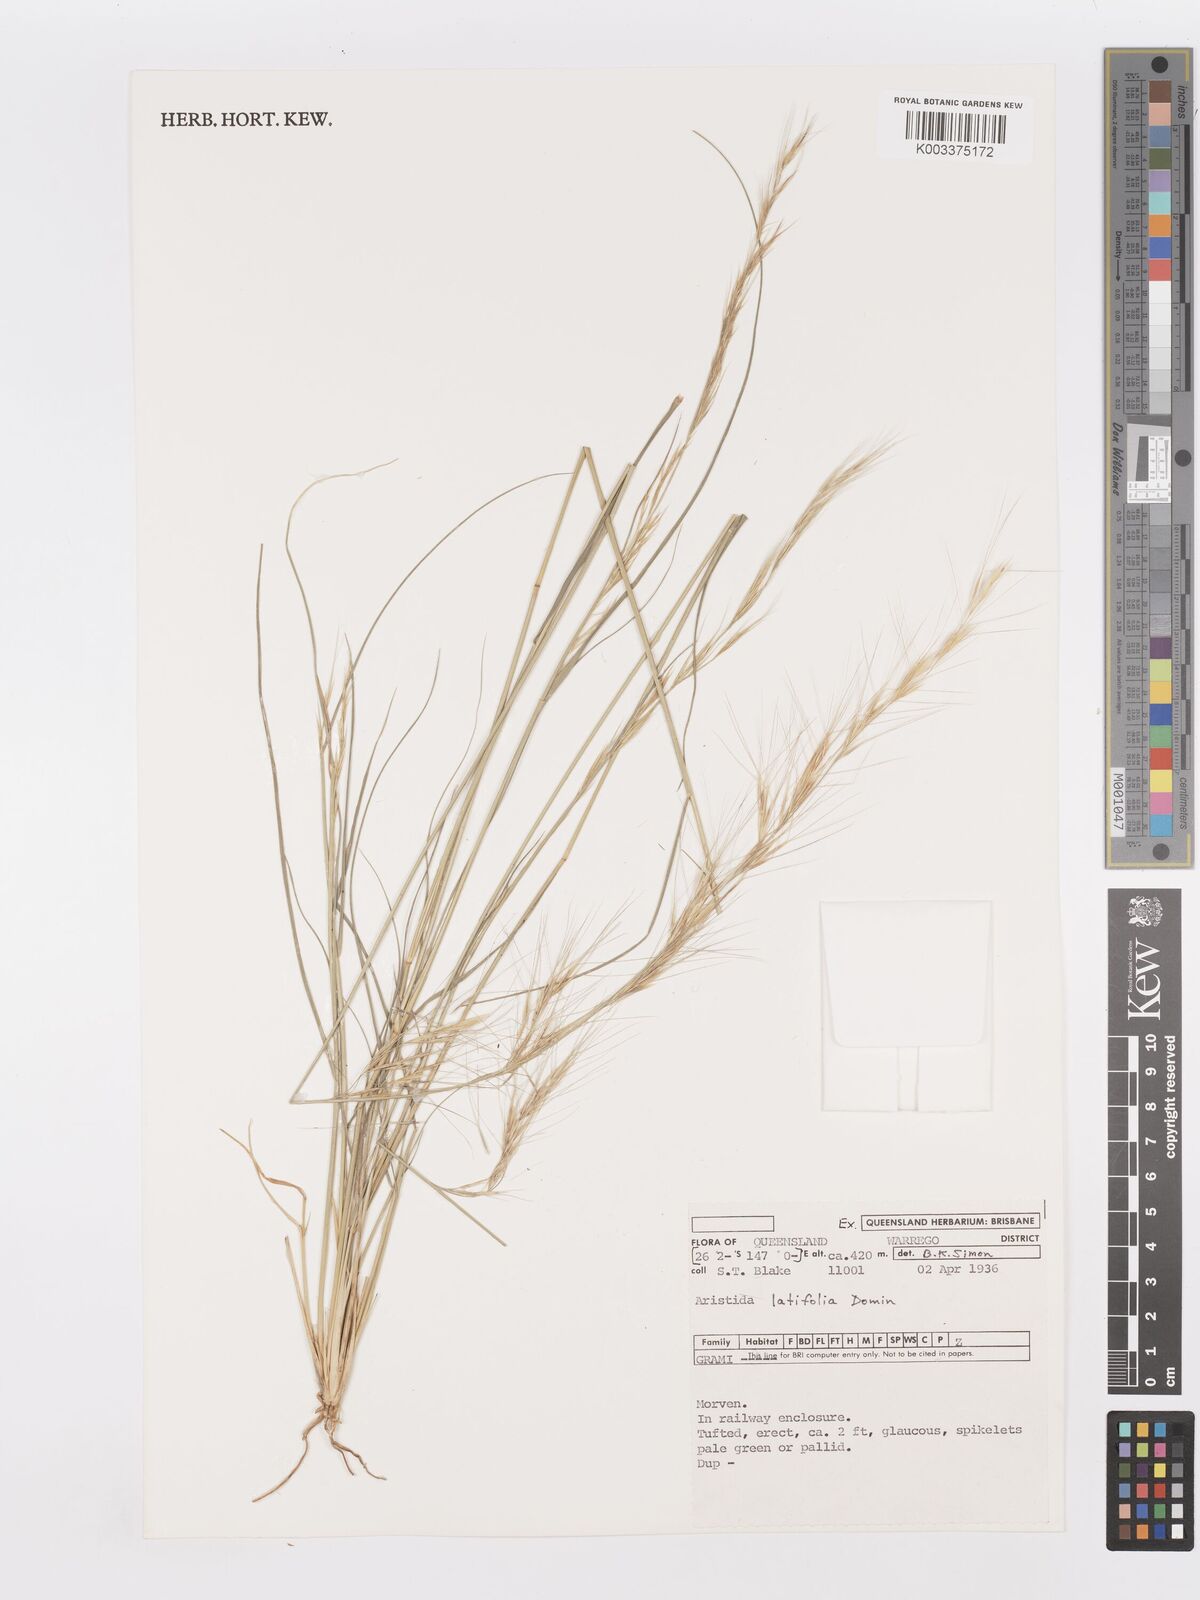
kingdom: Plantae
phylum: Tracheophyta
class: Liliopsida
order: Poales
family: Poaceae
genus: Aristida
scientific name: Aristida latifolia
